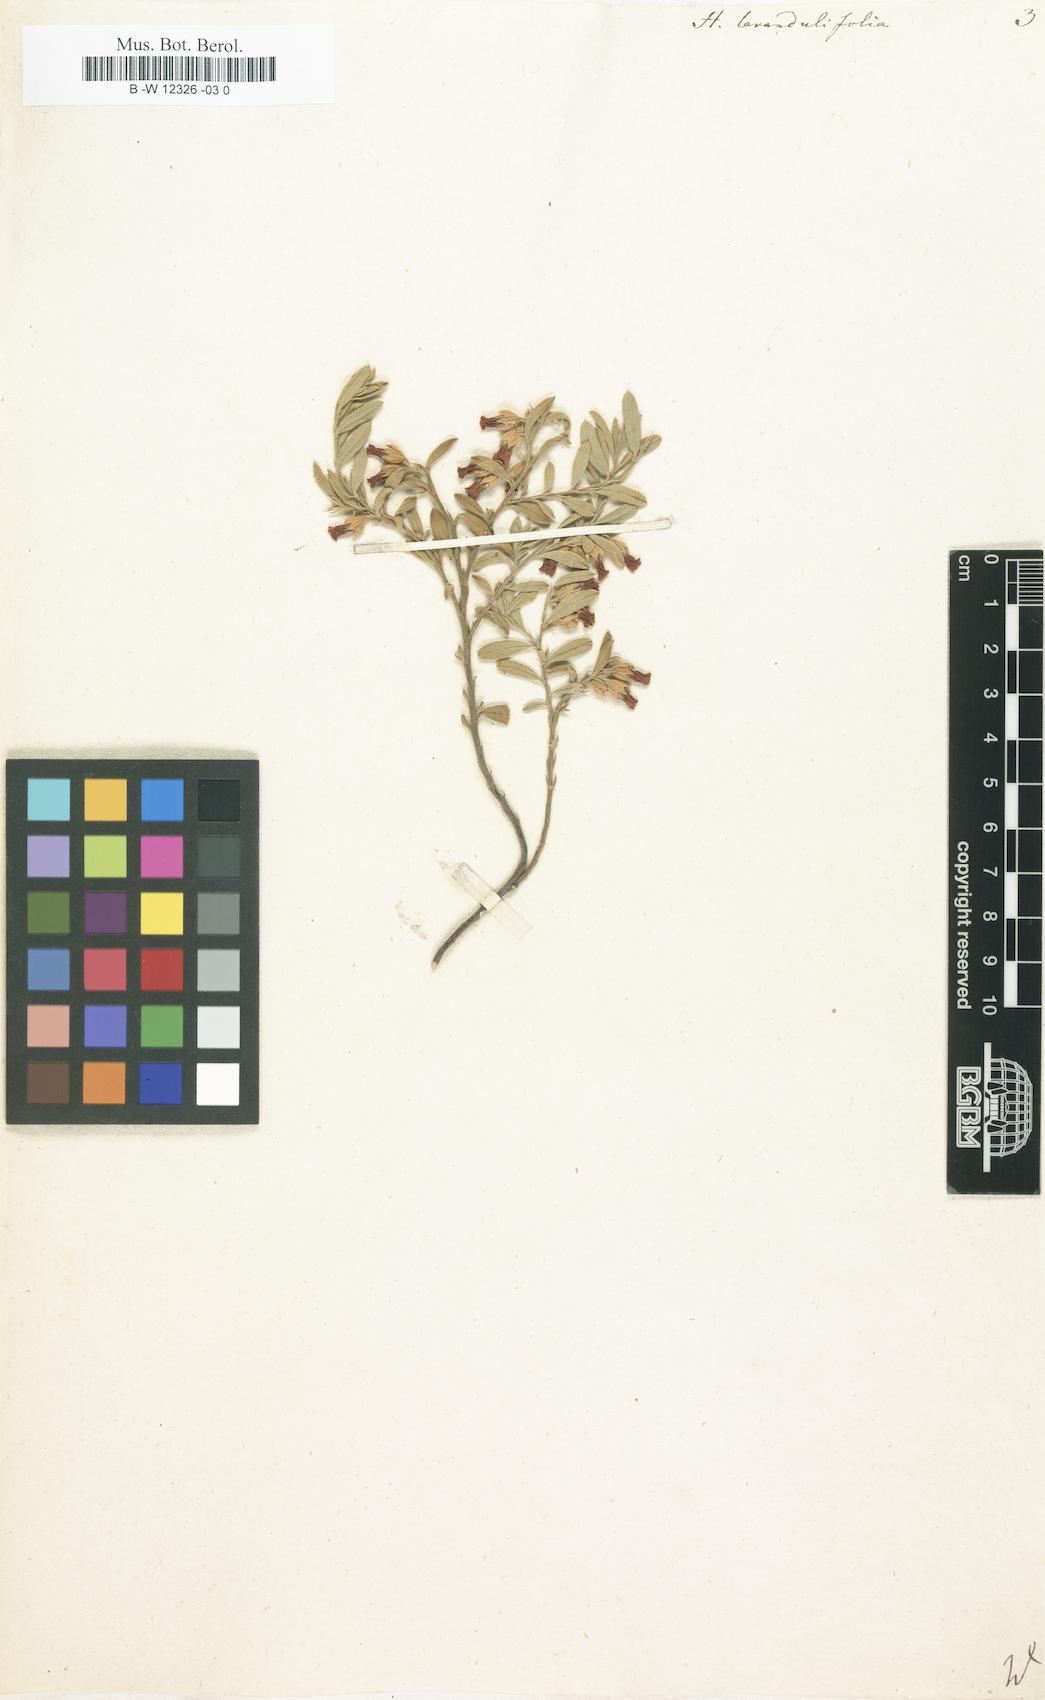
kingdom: Plantae
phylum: Tracheophyta
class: Magnoliopsida
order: Malvales
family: Malvaceae
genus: Hermannia
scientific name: Hermannia lavandulifolia
